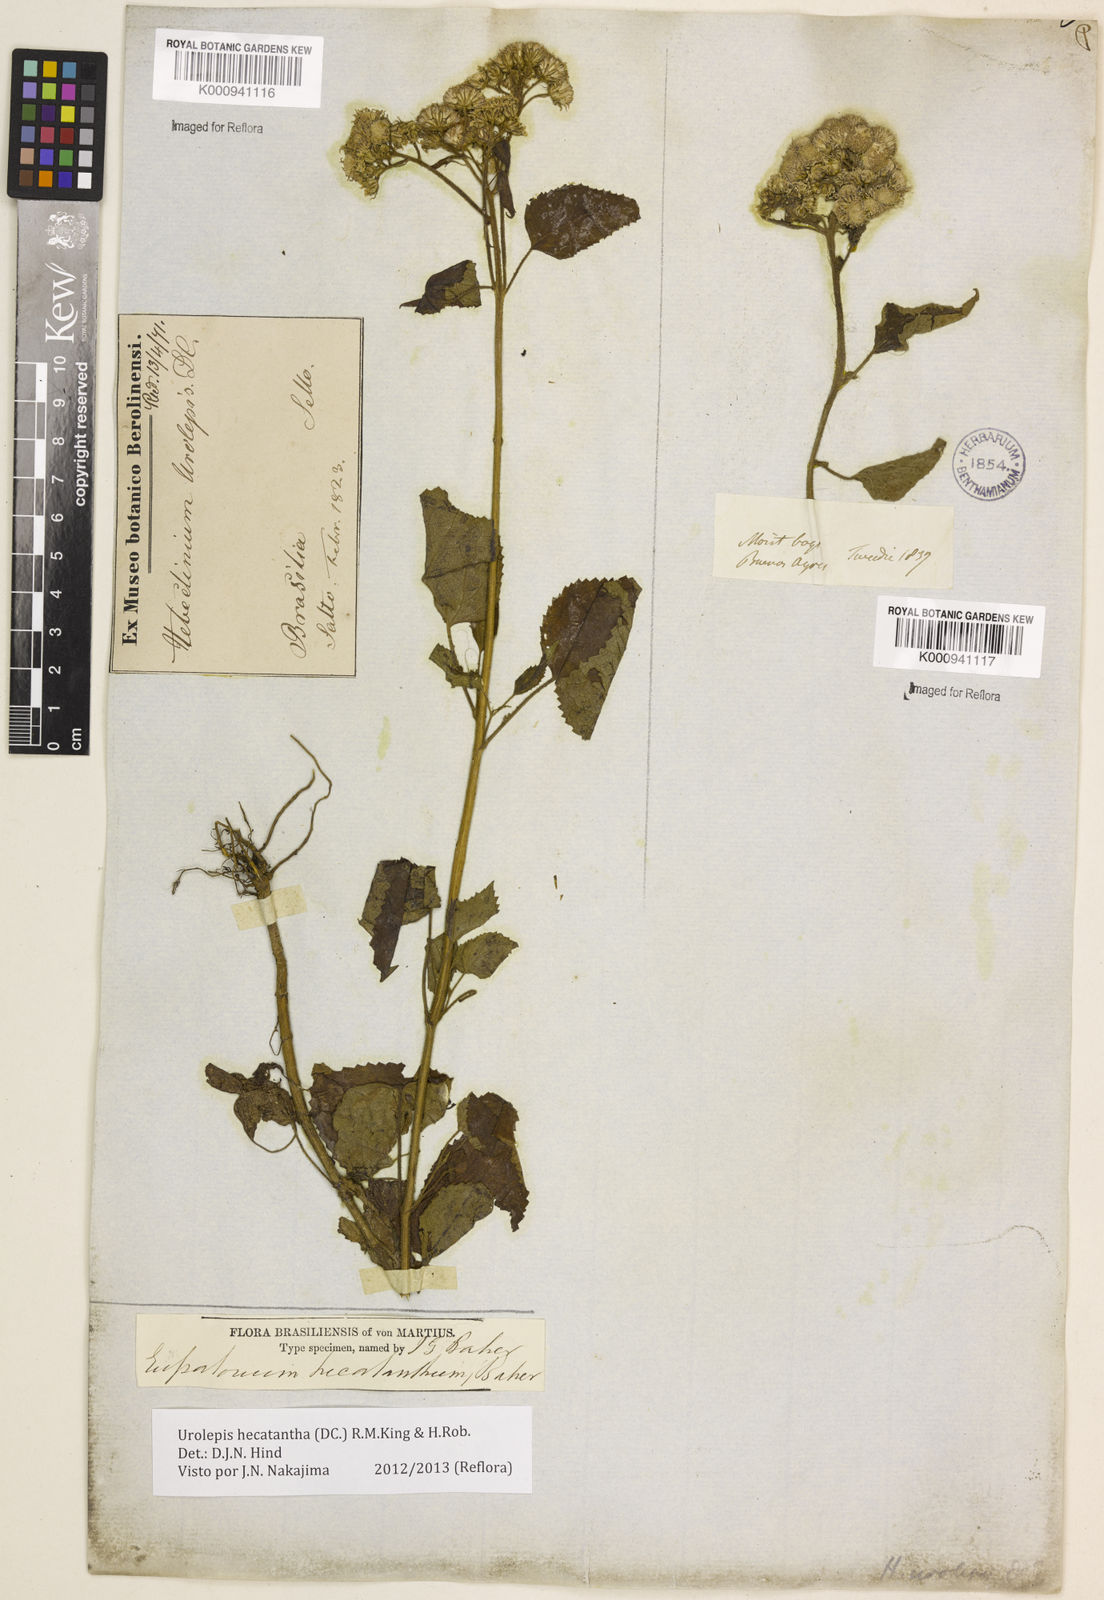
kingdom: Plantae
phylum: Tracheophyta
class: Magnoliopsida
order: Asterales
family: Asteraceae
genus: Urolepis
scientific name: Urolepis hecatantha
